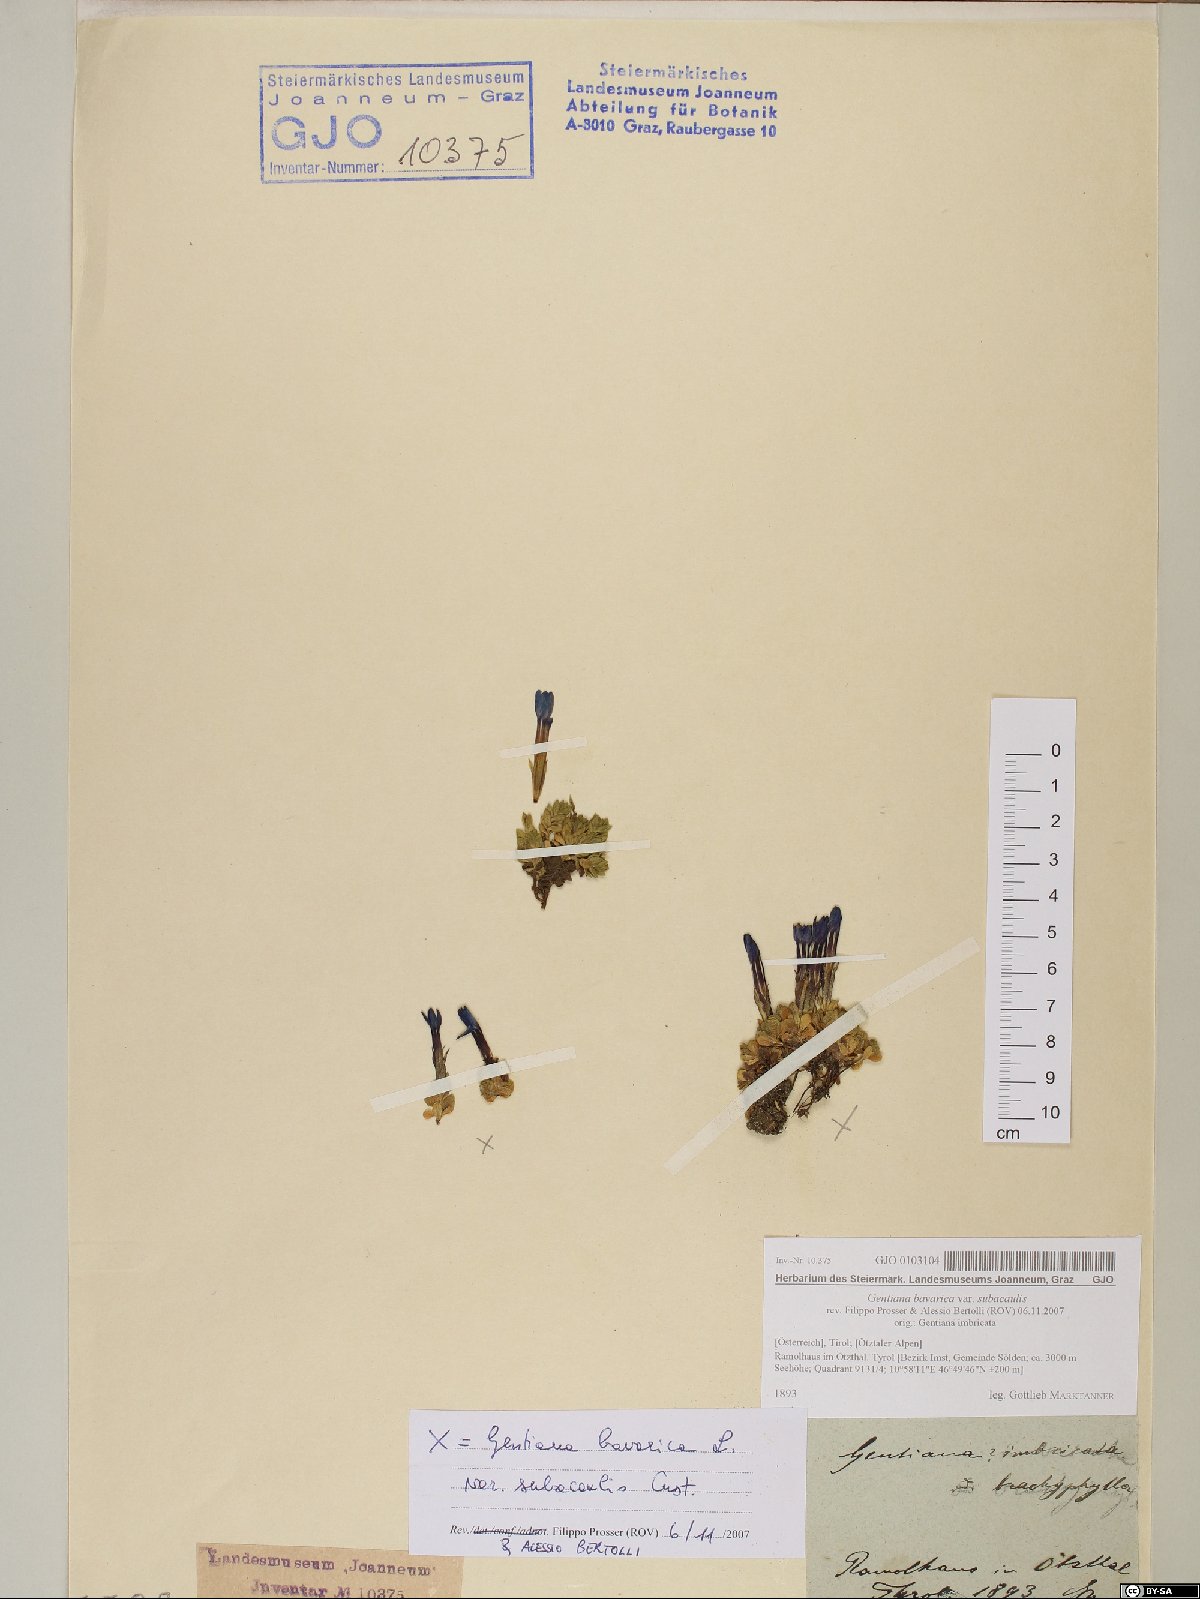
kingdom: Plantae
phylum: Tracheophyta
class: Magnoliopsida
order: Gentianales
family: Gentianaceae
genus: Gentiana
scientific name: Gentiana bavarica
